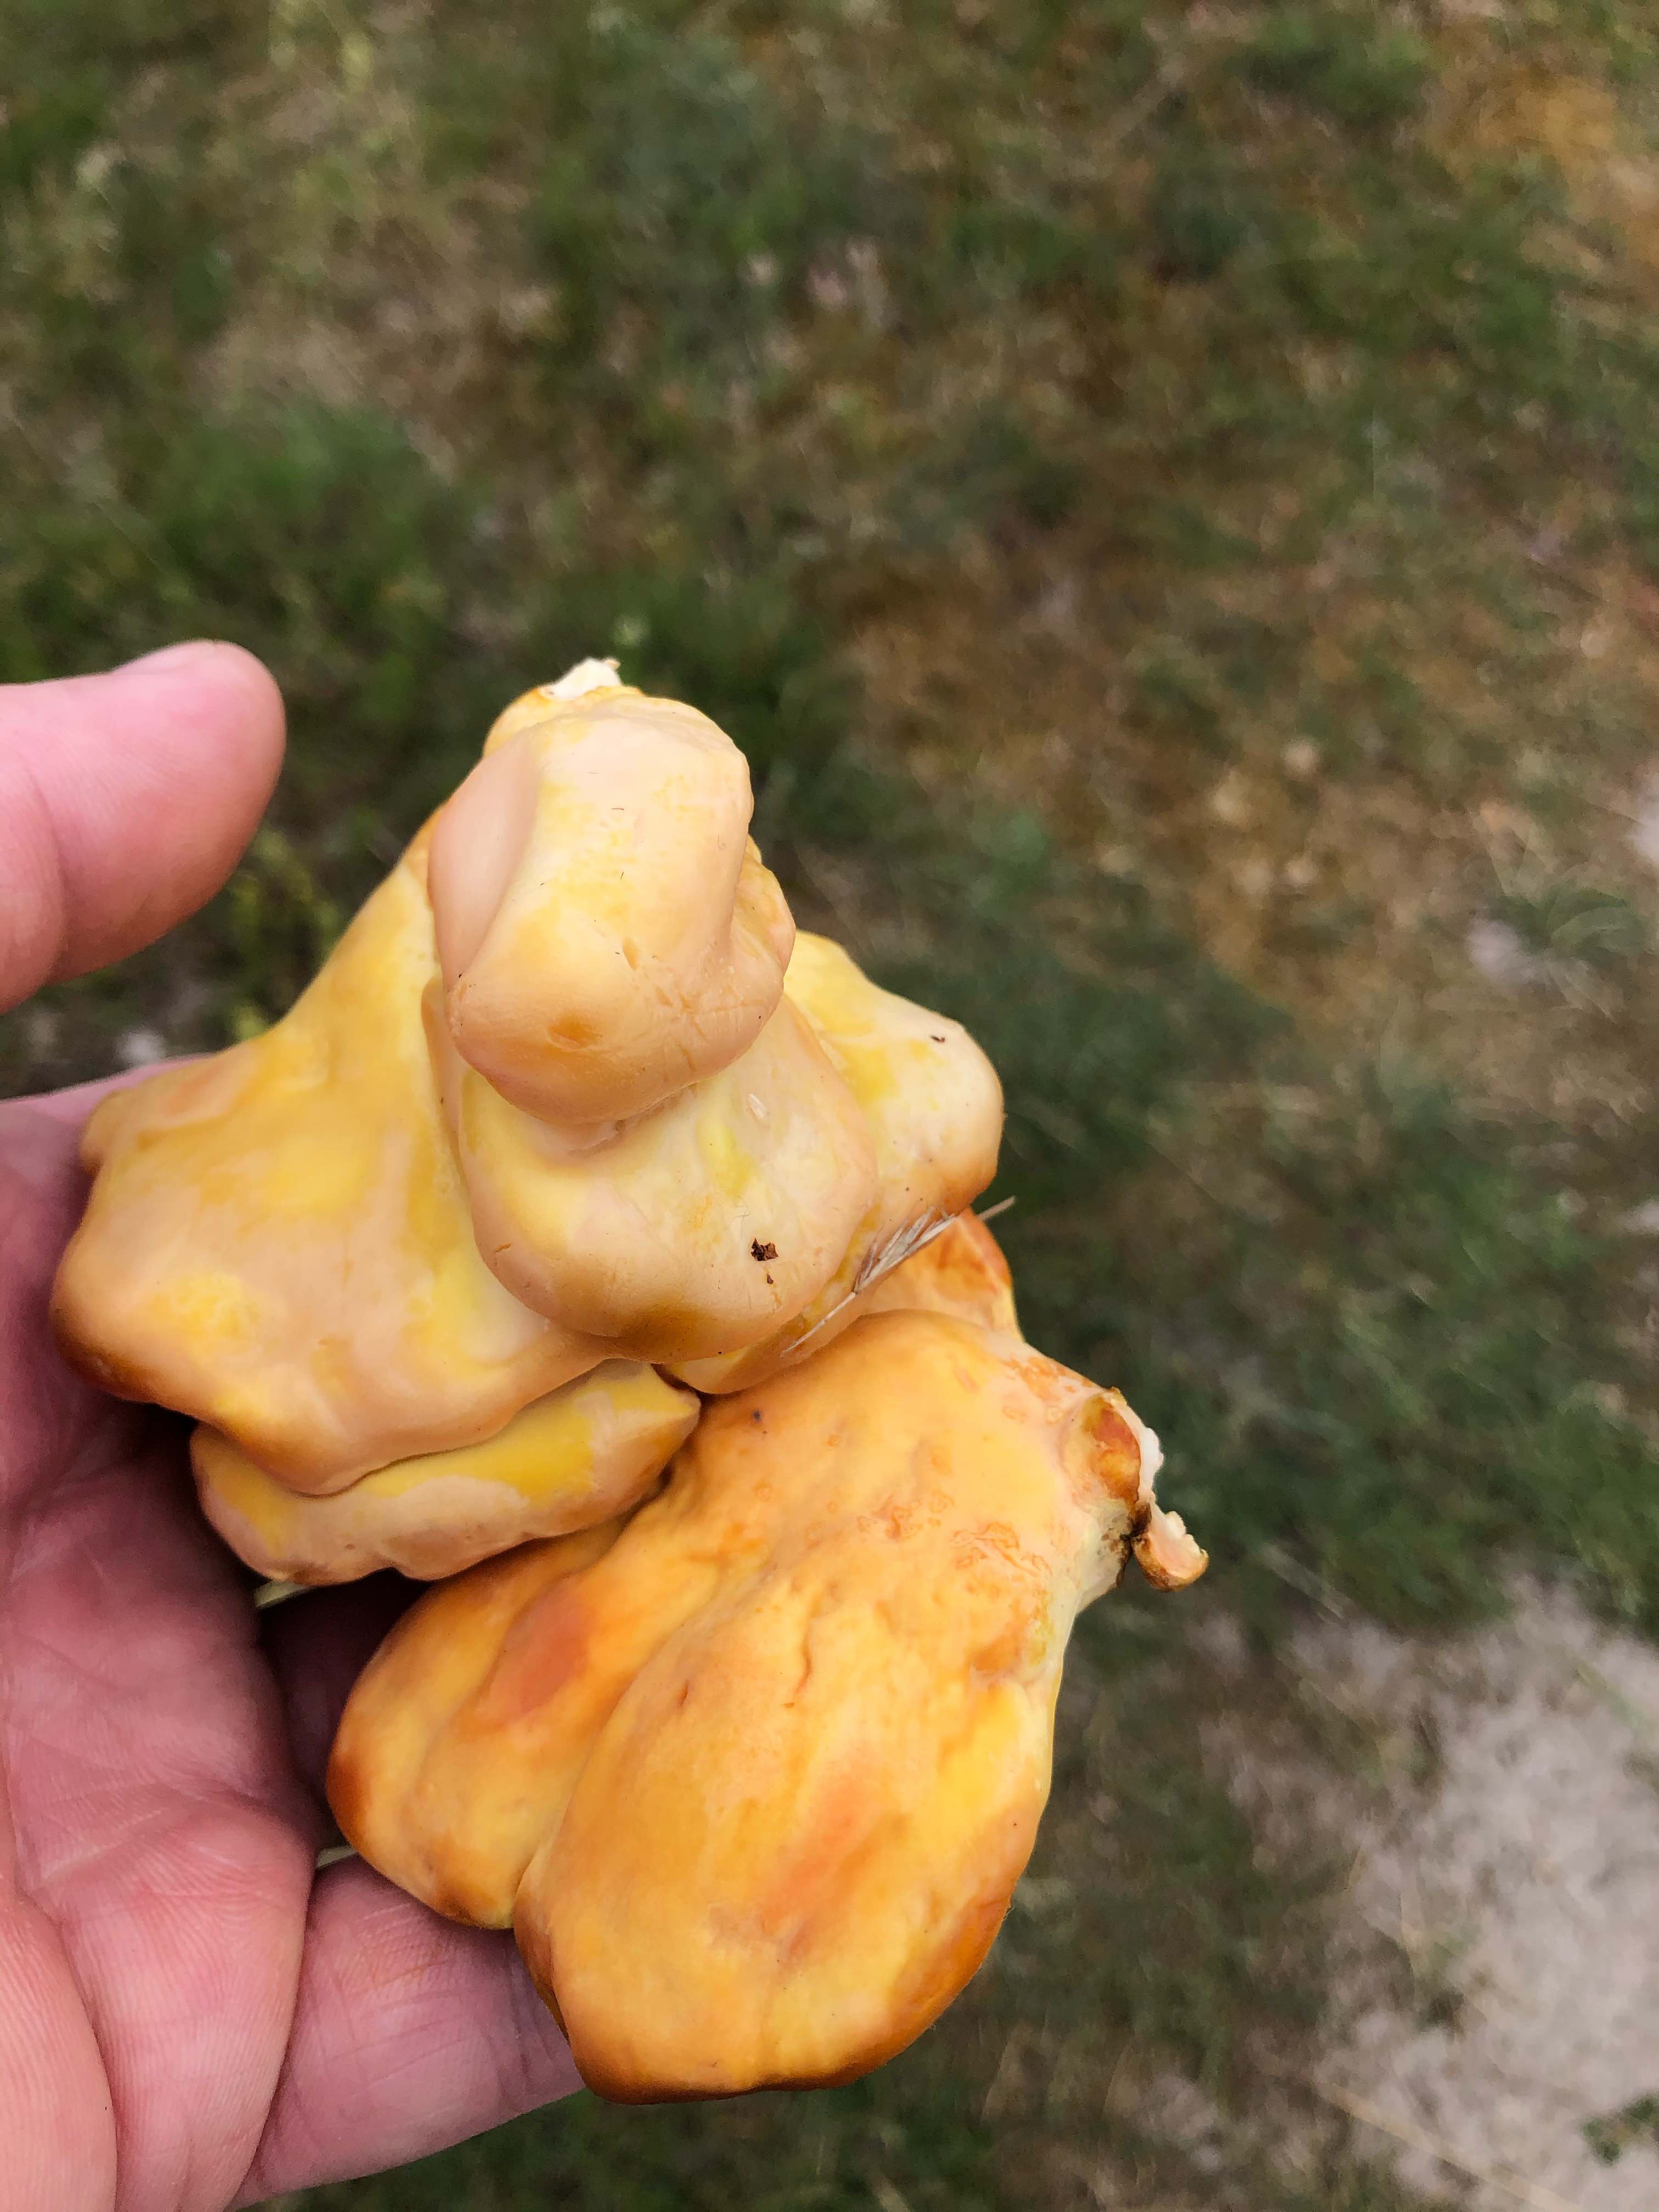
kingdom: Fungi
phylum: Basidiomycota
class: Agaricomycetes
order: Polyporales
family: Laetiporaceae
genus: Laetiporus
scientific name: Laetiporus sulphureus
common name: svovlporesvamp
